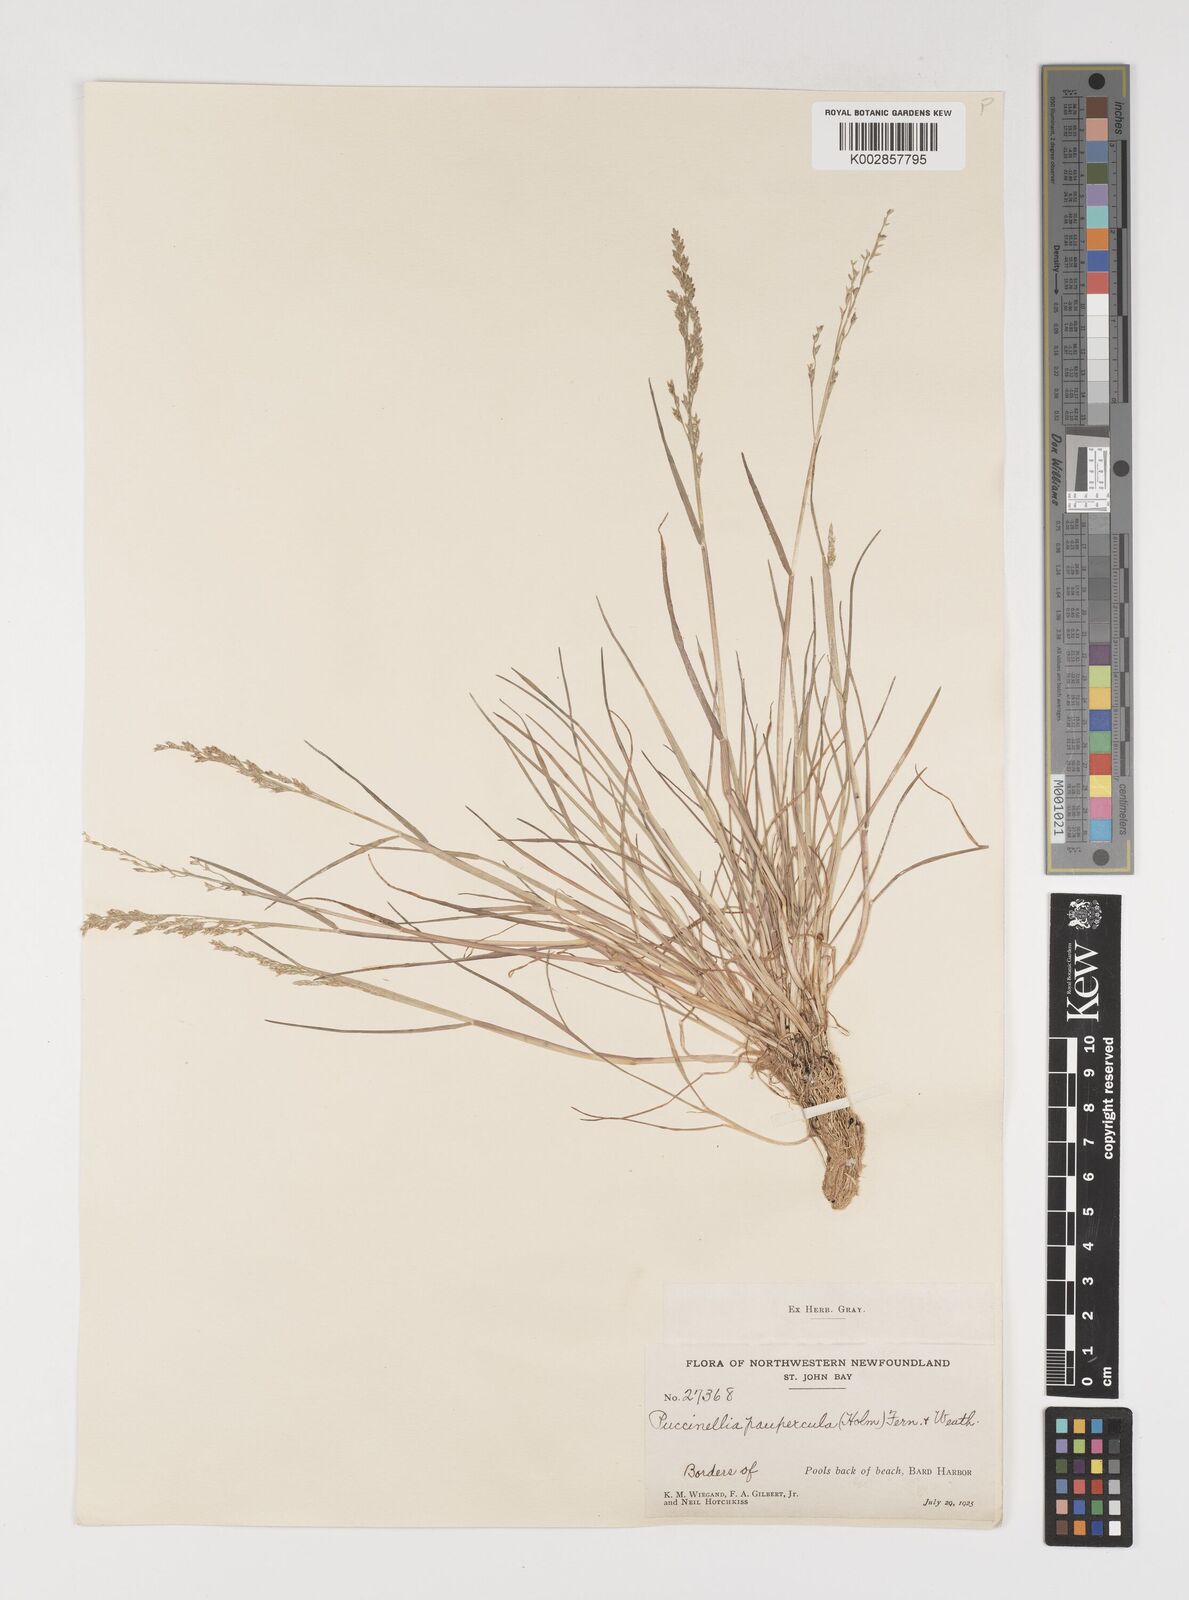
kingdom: Plantae
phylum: Tracheophyta
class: Liliopsida
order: Poales
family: Poaceae
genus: Puccinellia
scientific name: Puccinellia pumila
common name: Dwarf alkaligrass
